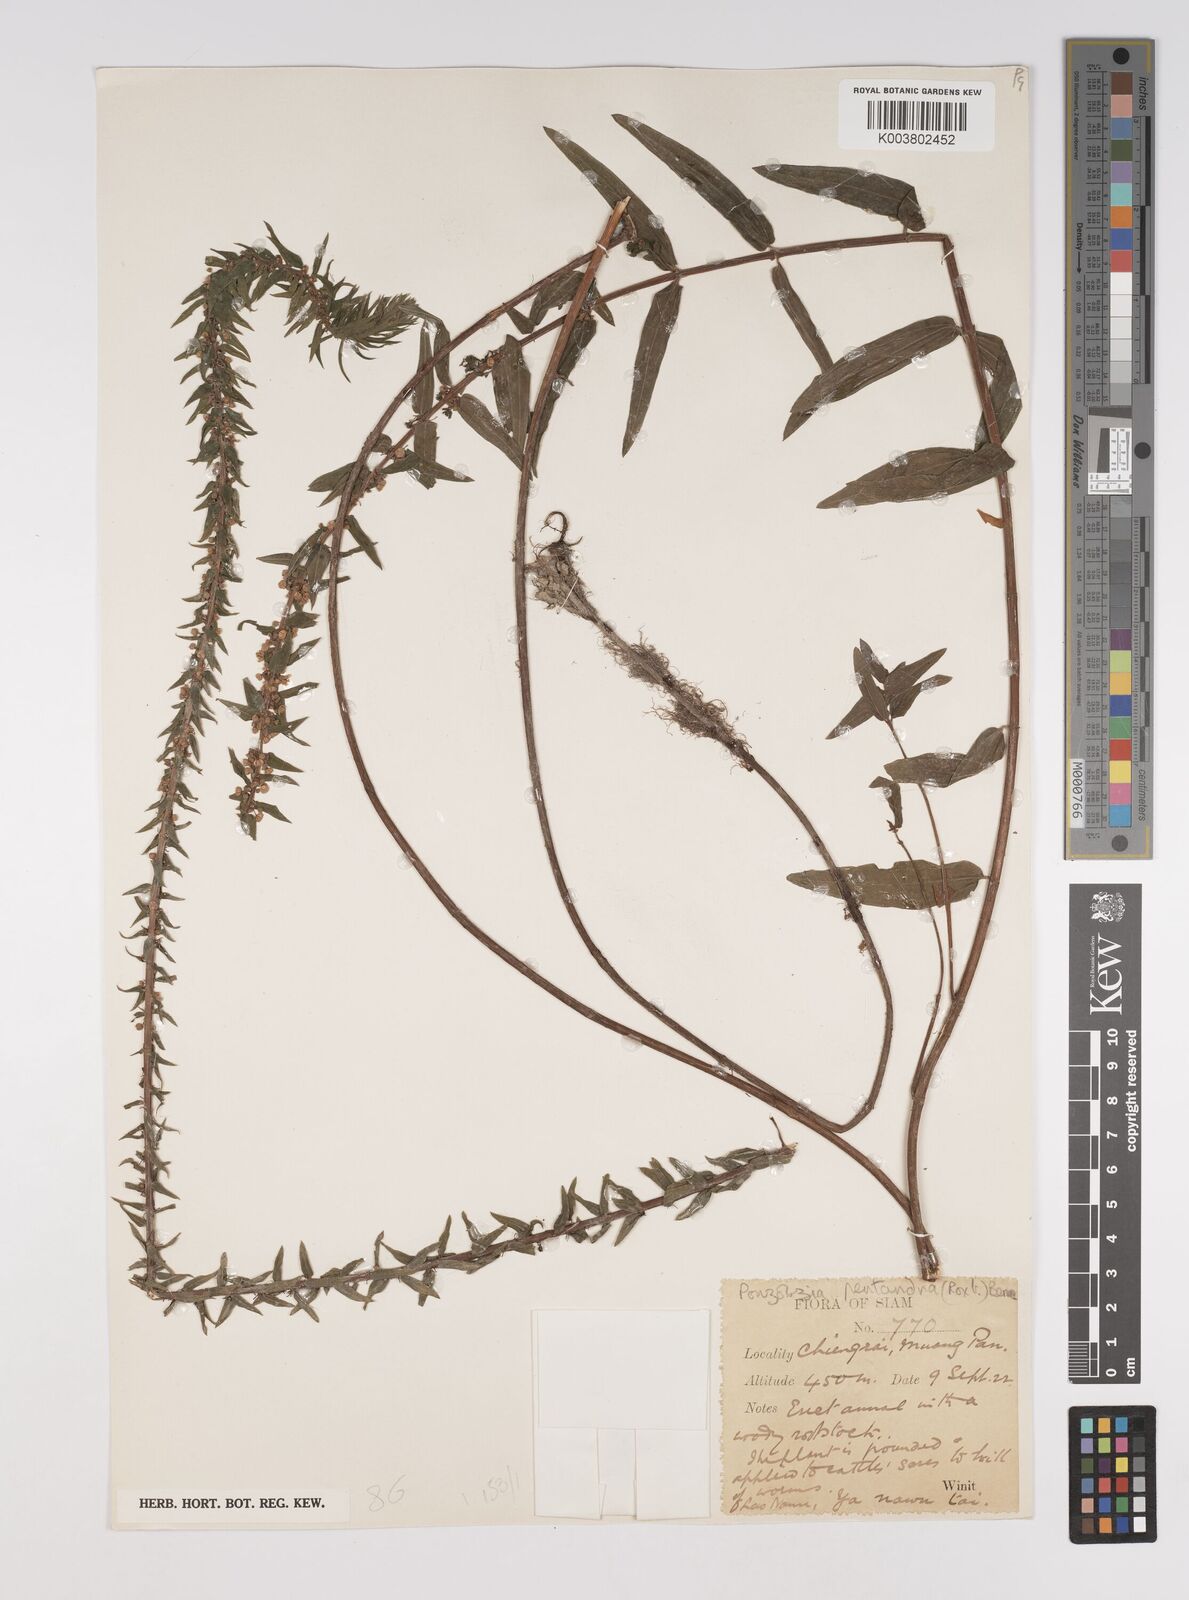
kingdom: Plantae
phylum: Tracheophyta
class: Magnoliopsida
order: Rosales
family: Urticaceae
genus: Gonostegia
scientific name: Gonostegia pentandra
